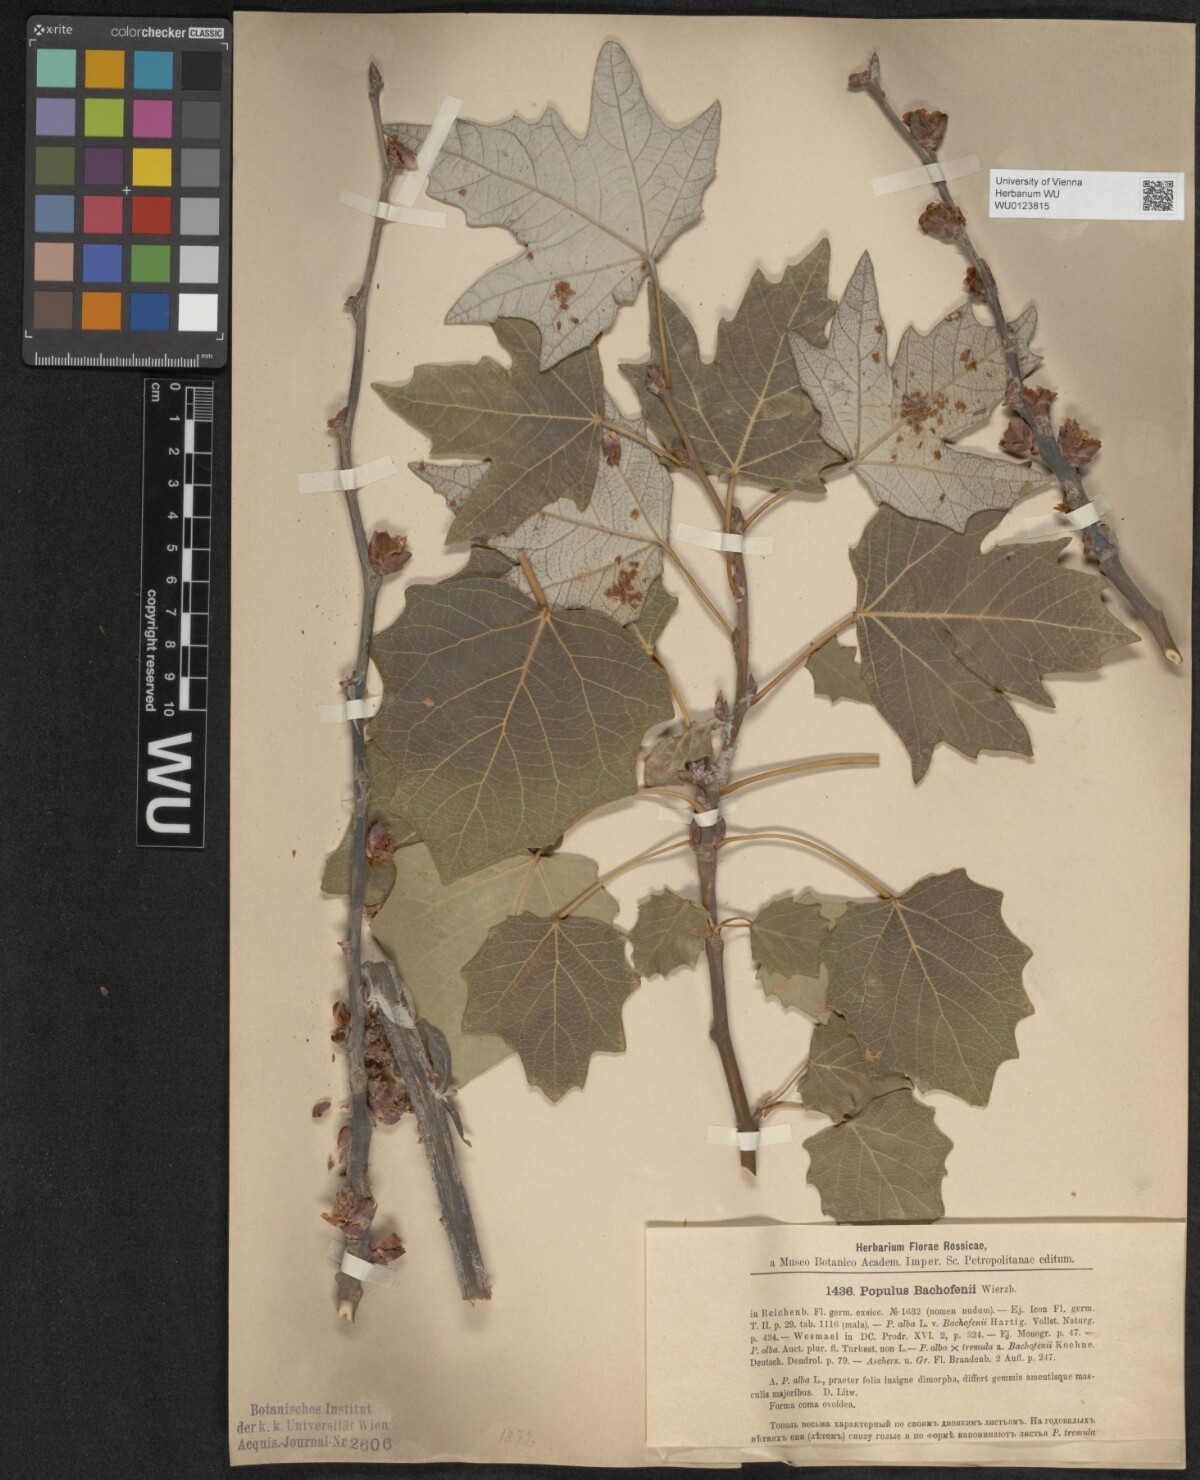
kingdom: Plantae
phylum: Tracheophyta
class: Magnoliopsida
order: Malpighiales
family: Salicaceae
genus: Populus
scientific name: Populus alba
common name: White poplar
